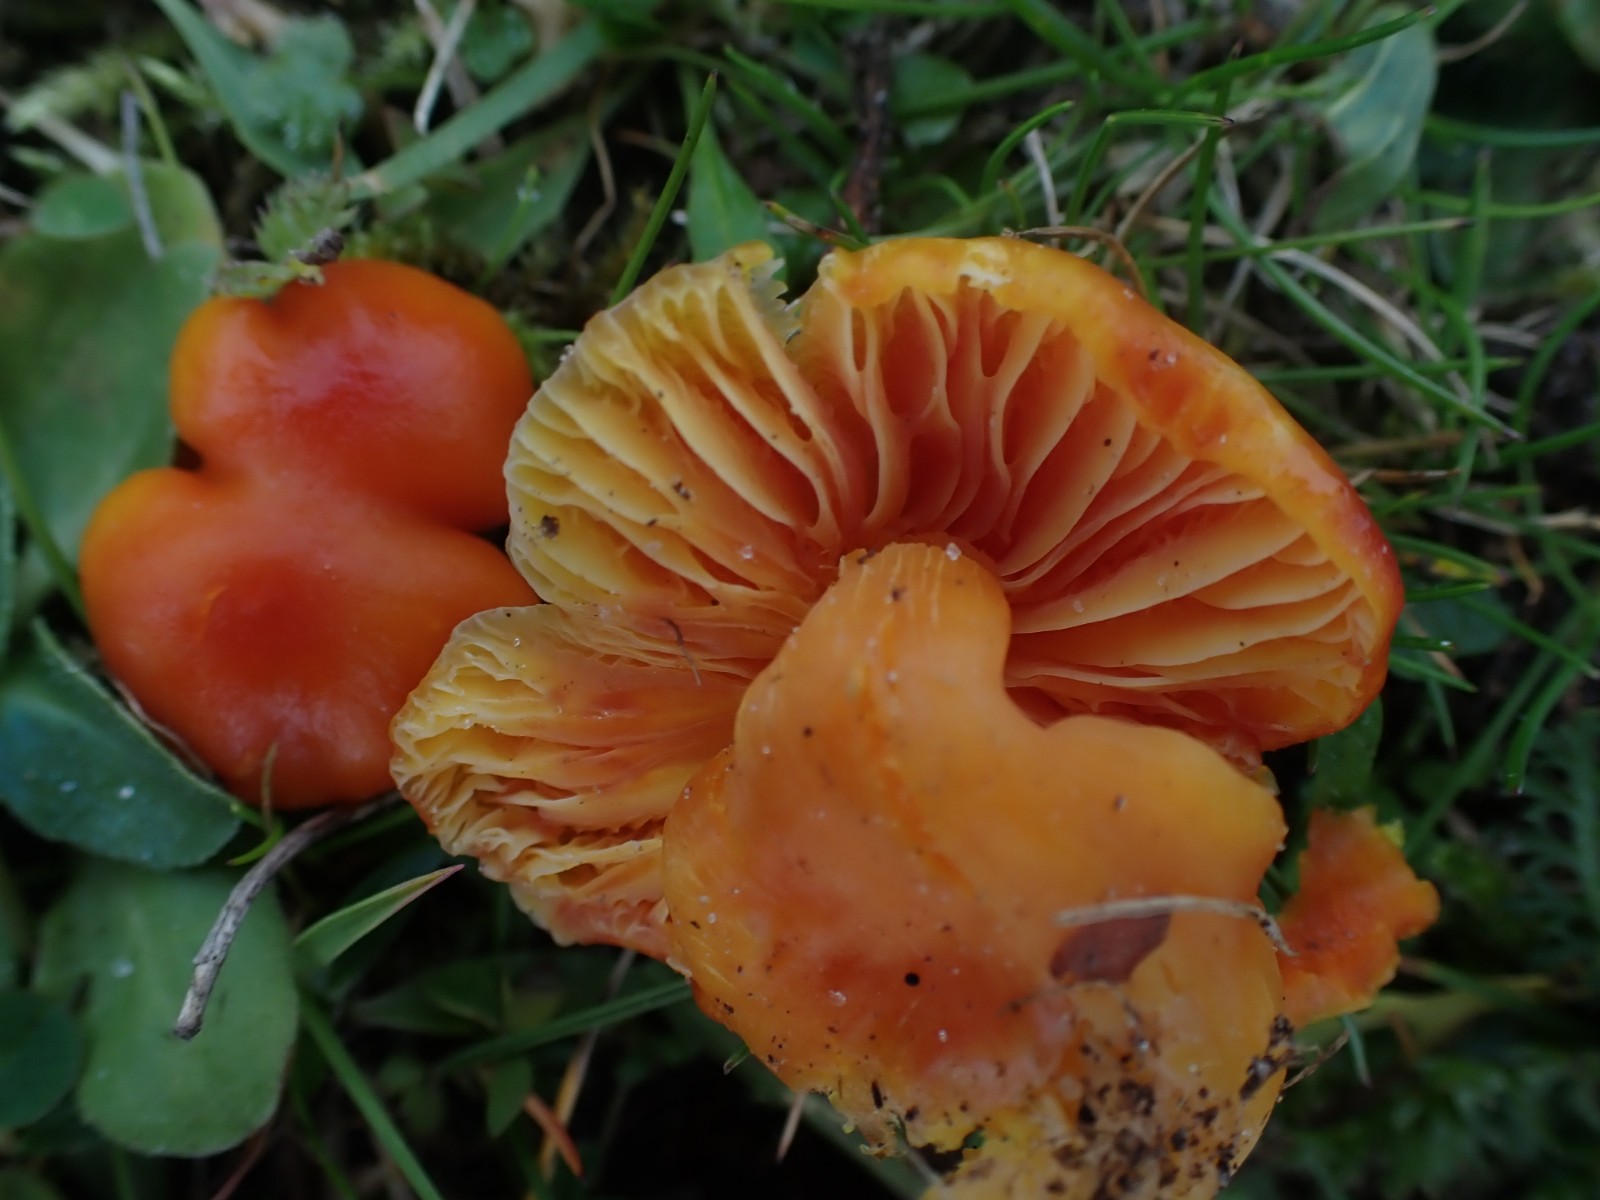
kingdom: Fungi
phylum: Basidiomycota
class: Agaricomycetes
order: Agaricales
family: Hygrophoraceae
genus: Hygrocybe
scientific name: Hygrocybe reidii
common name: honning-vokshat
